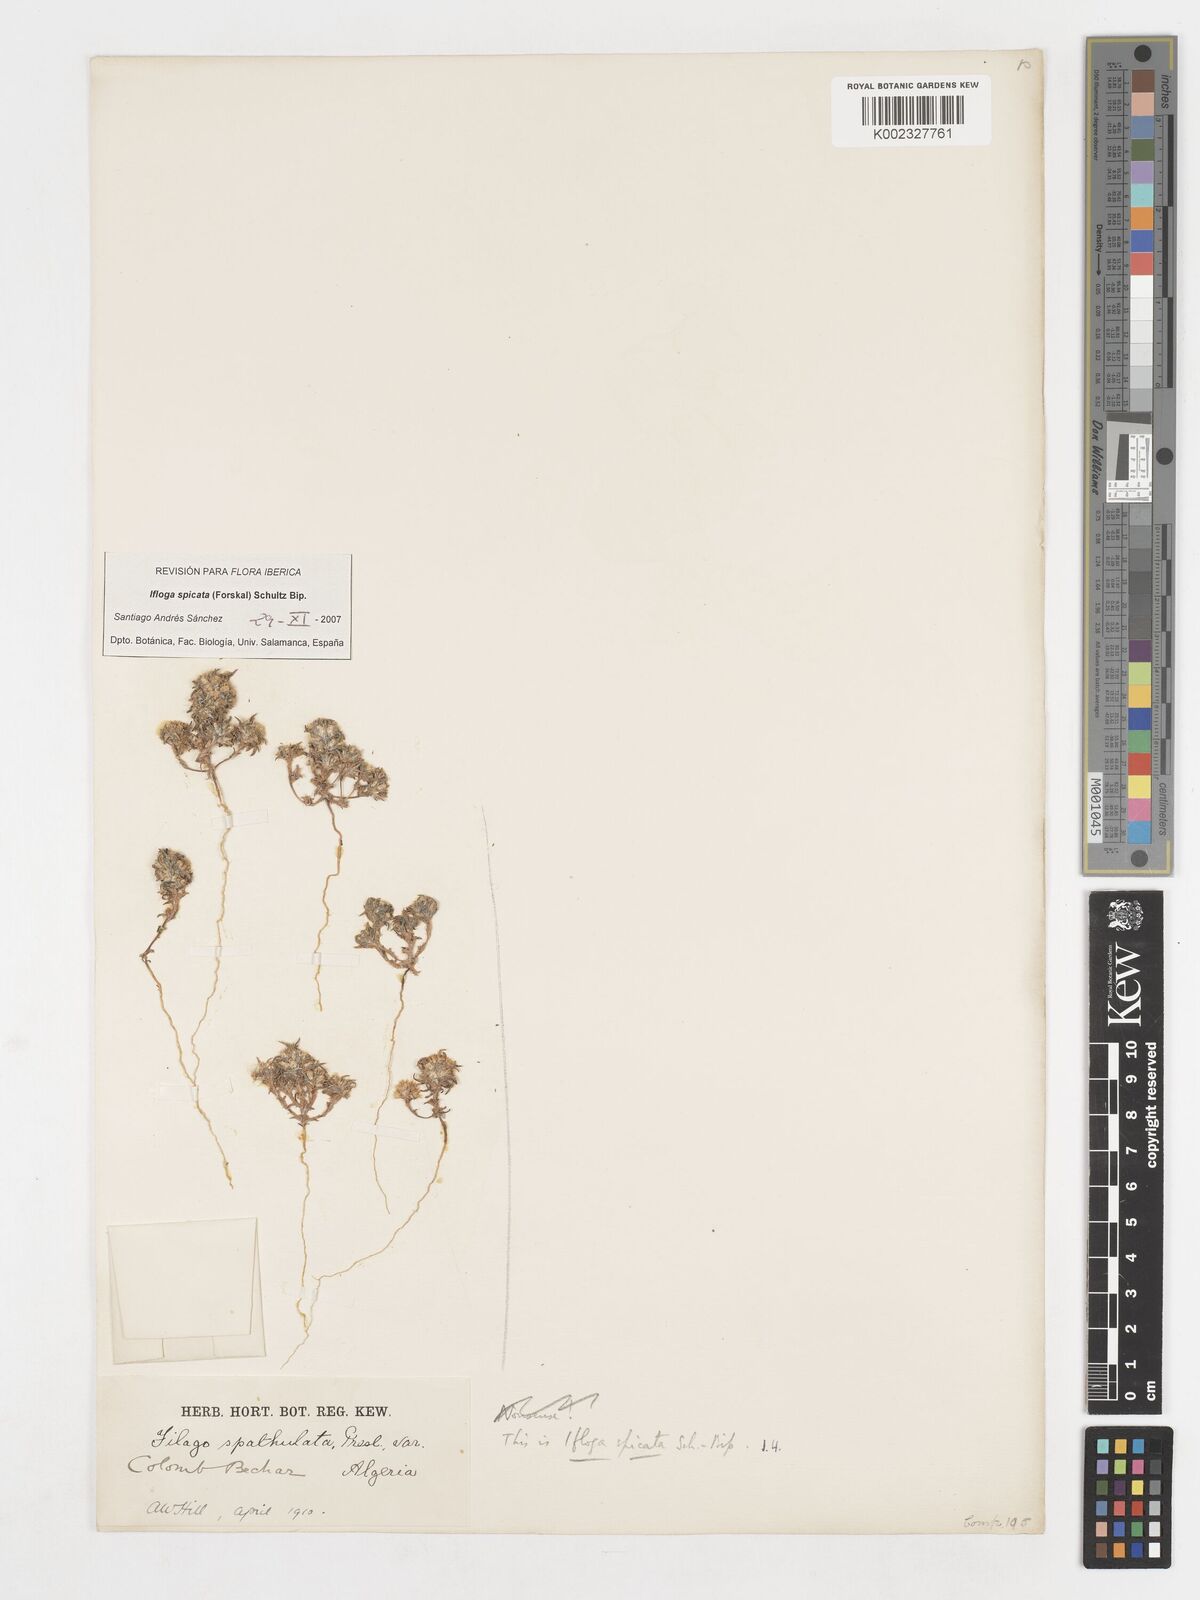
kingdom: Plantae
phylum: Tracheophyta
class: Magnoliopsida
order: Asterales
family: Asteraceae
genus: Ifloga
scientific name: Ifloga spicata
